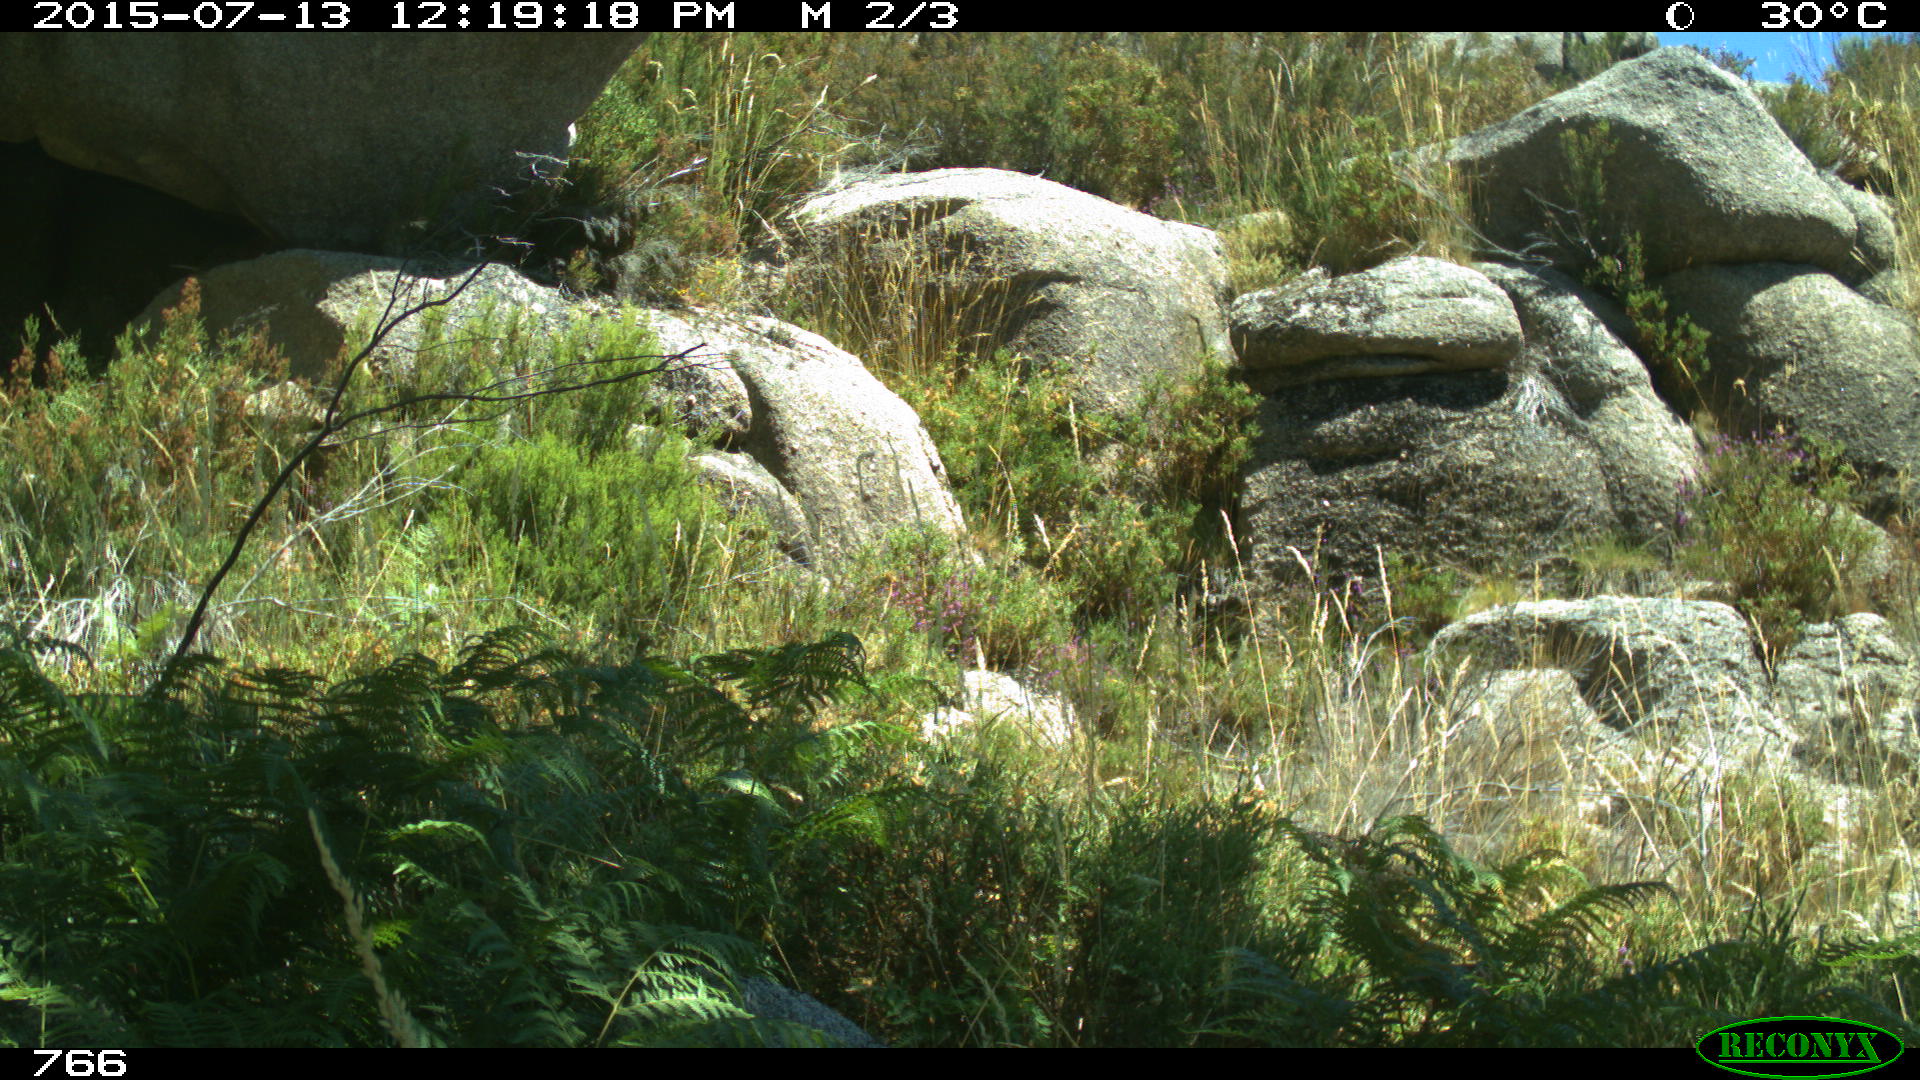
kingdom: Animalia
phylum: Chordata
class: Mammalia
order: Artiodactyla
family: Cervidae
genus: Capreolus
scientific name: Capreolus capreolus
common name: Western roe deer
